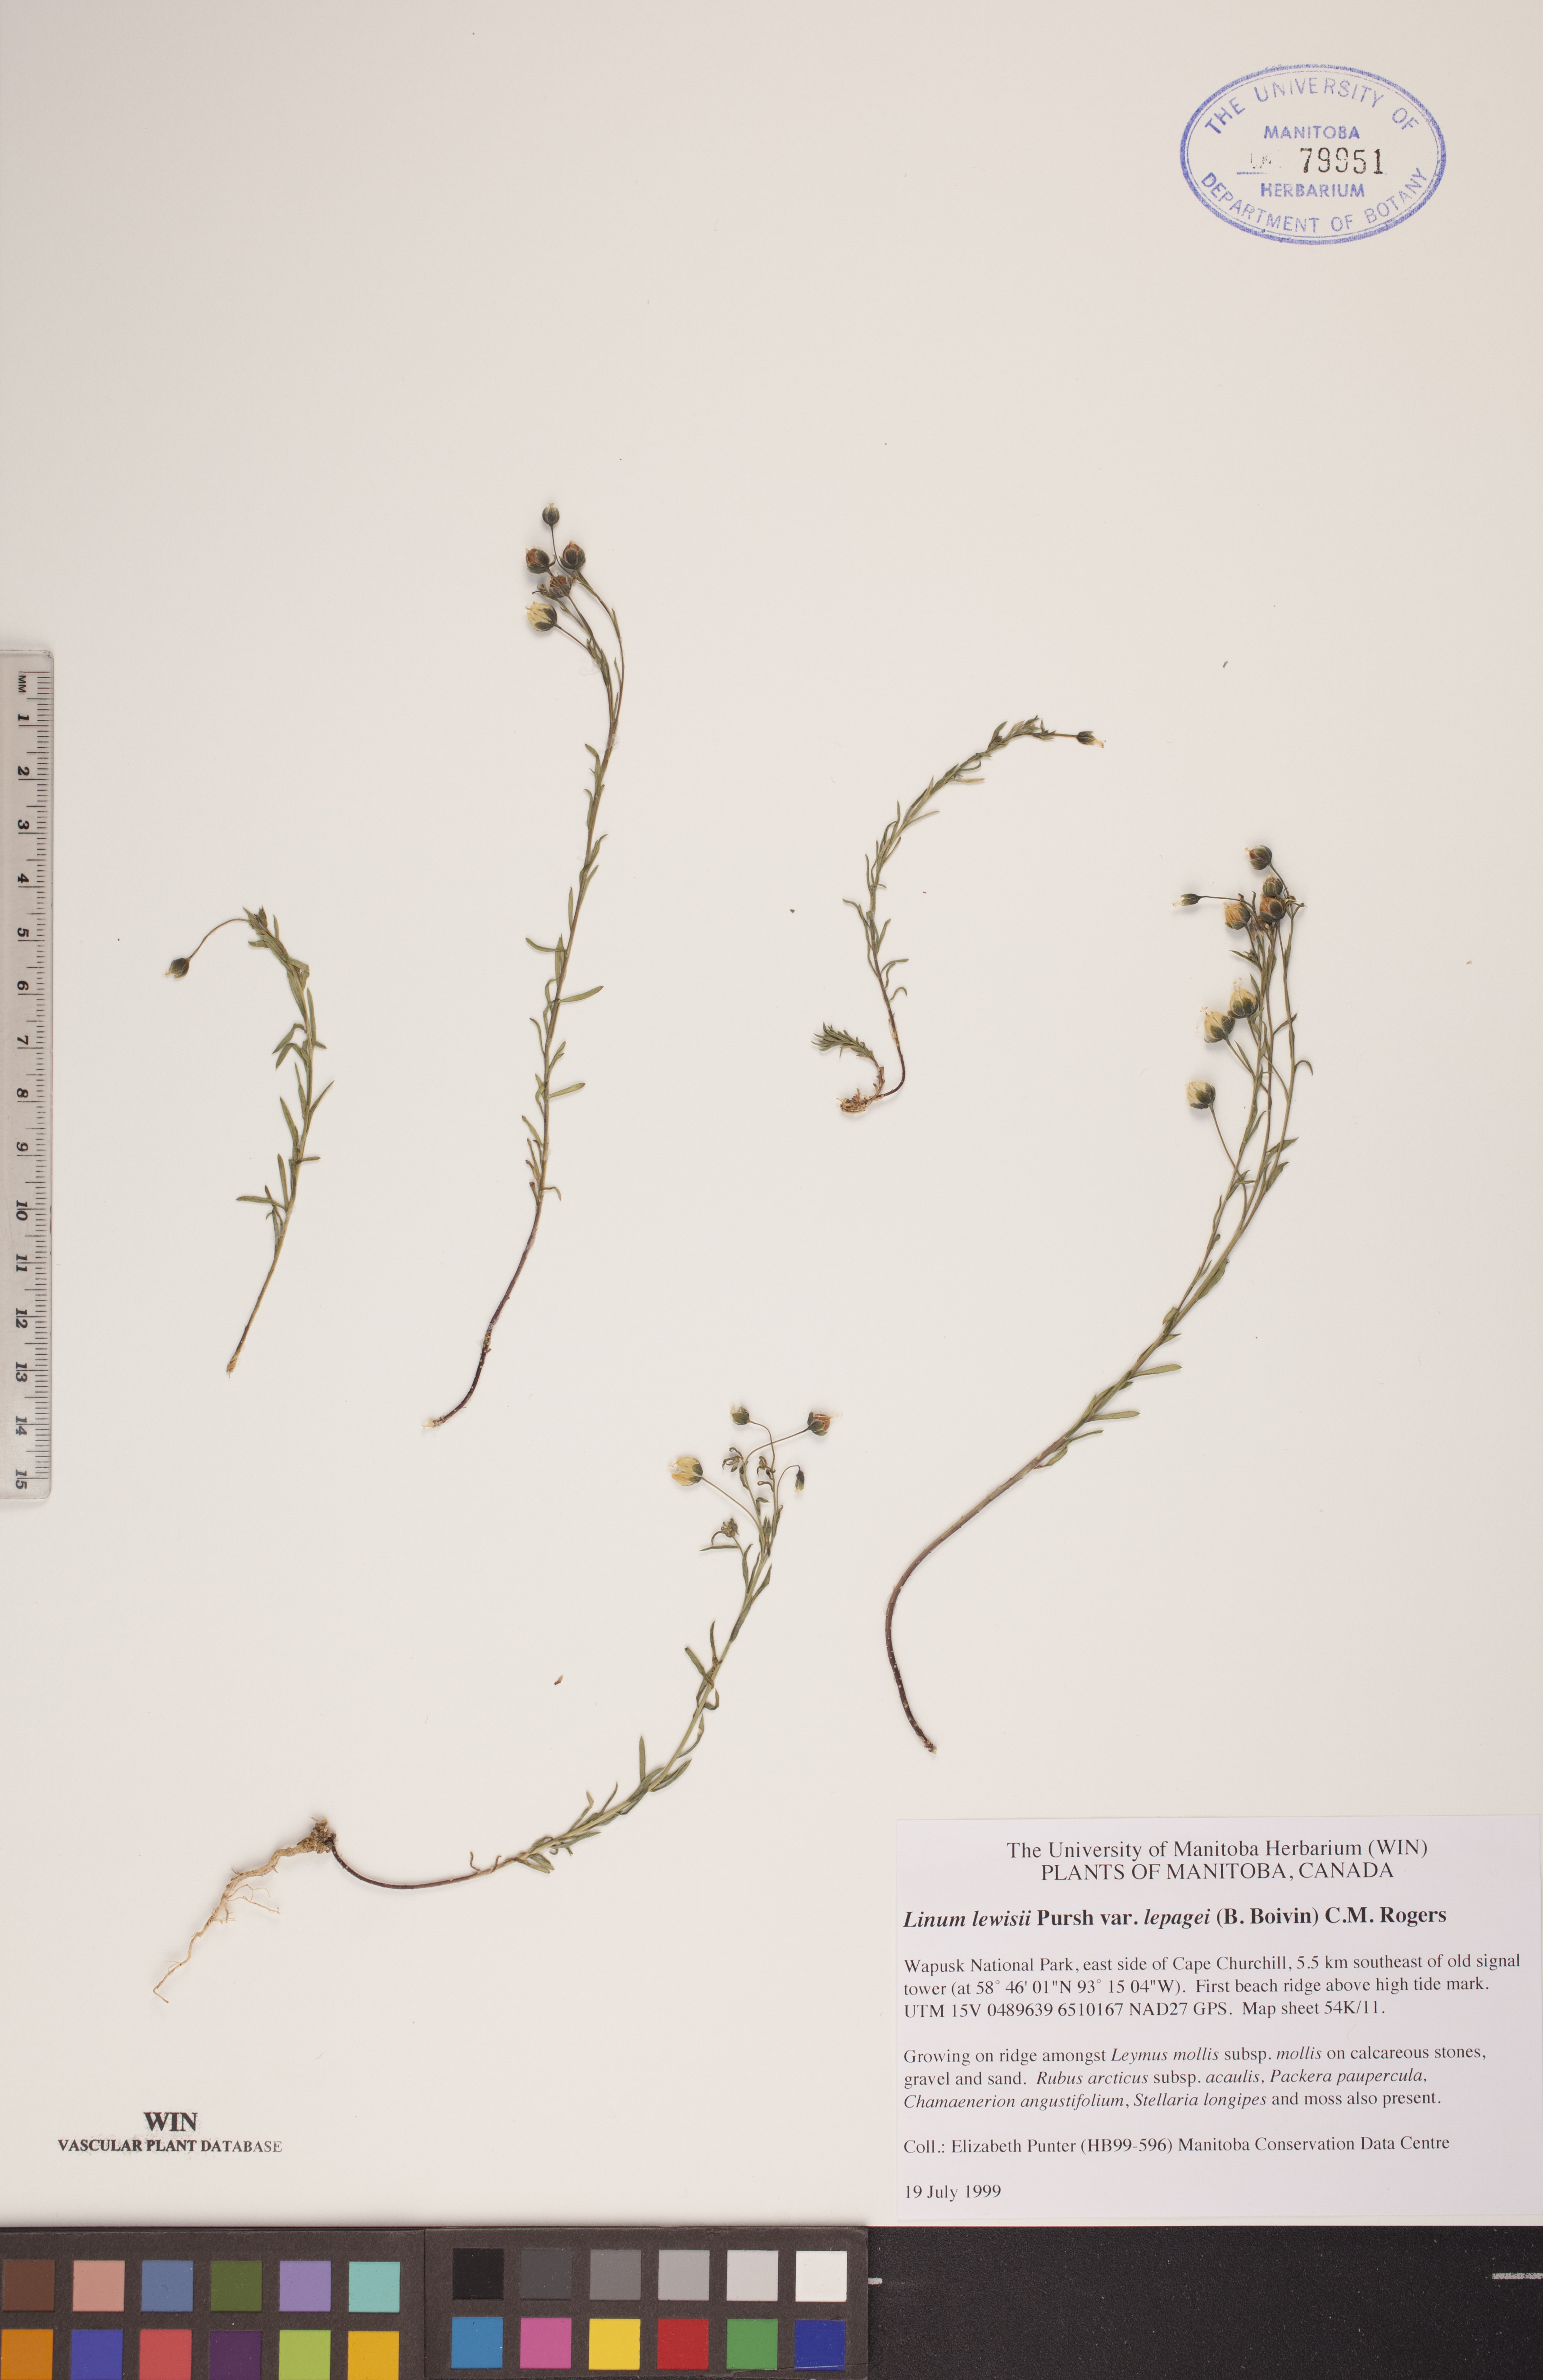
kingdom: Plantae
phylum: Tracheophyta
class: Magnoliopsida
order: Malpighiales
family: Linaceae
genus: Linum
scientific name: Linum lewisii
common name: Prairie flax
